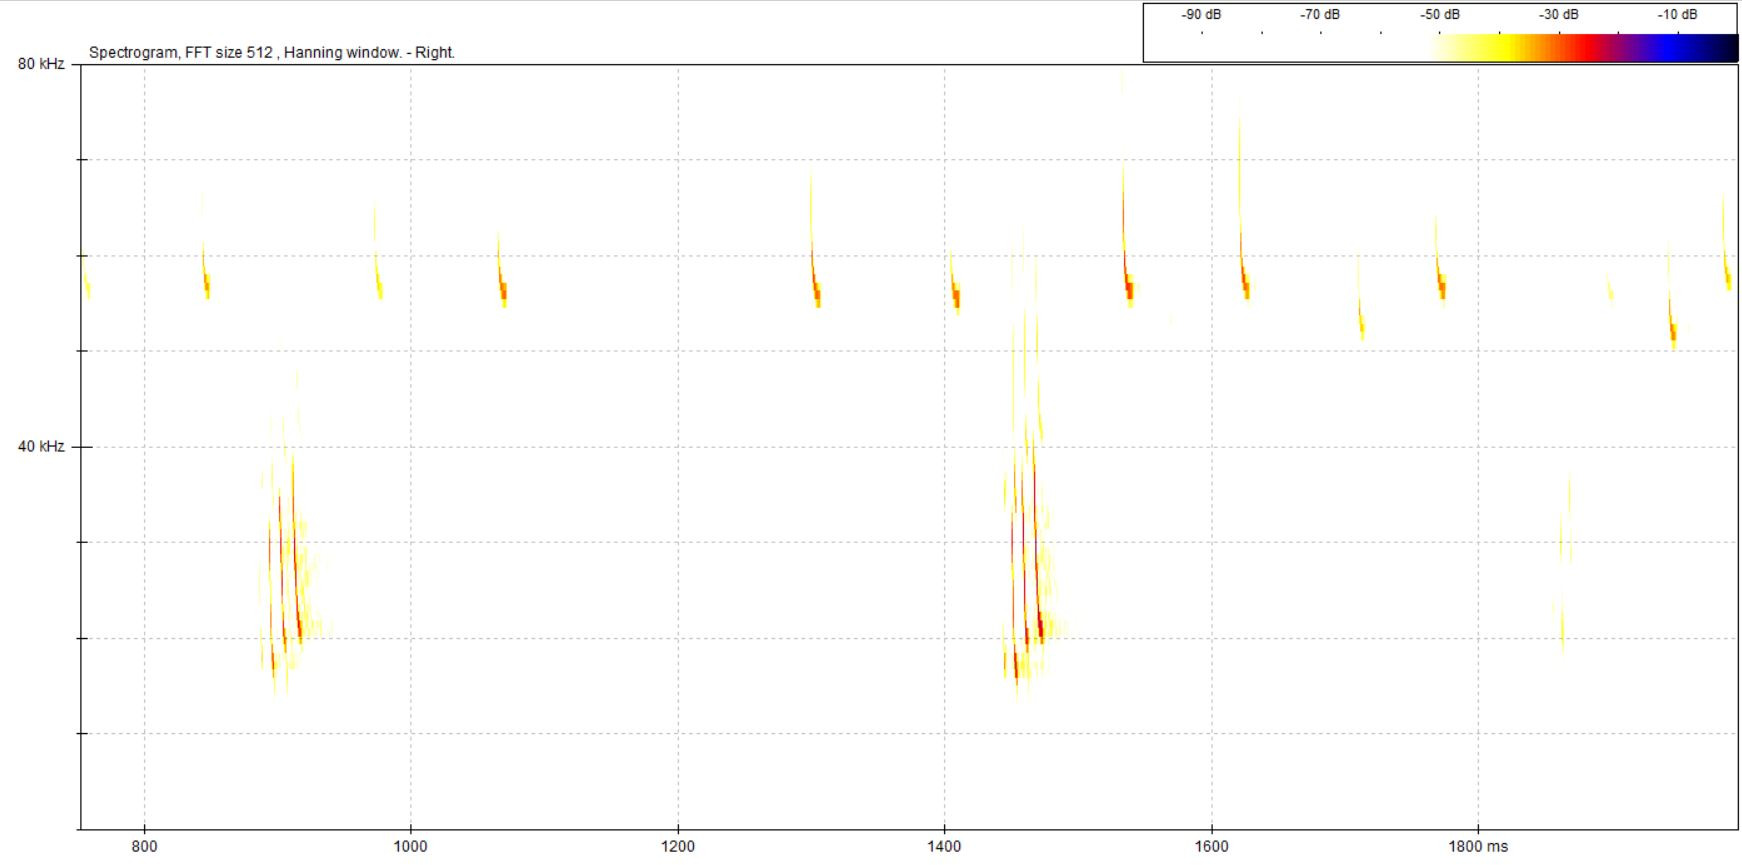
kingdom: Animalia
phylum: Chordata
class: Mammalia
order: Chiroptera
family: Vespertilionidae
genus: Pipistrellus
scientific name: Pipistrellus pygmaeus
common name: Dværgflagermus
